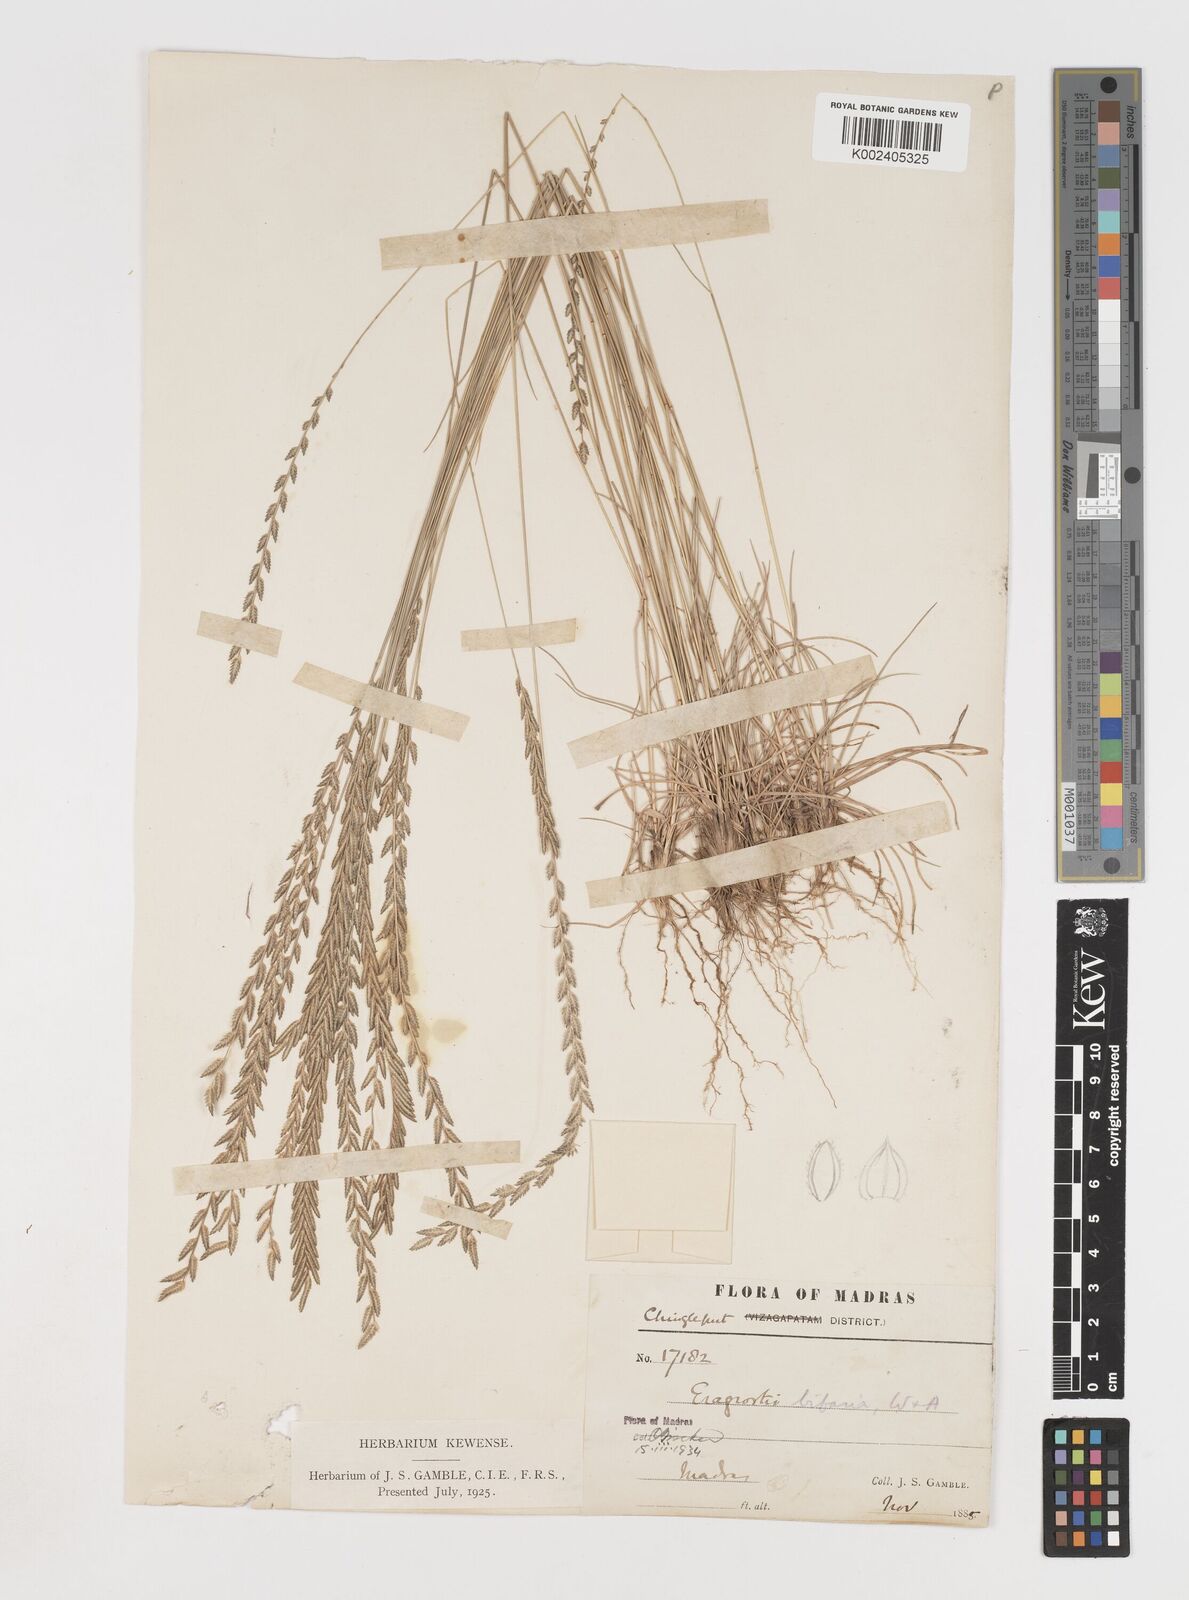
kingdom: Plantae
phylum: Tracheophyta
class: Liliopsida
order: Poales
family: Poaceae
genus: Eragrostiella
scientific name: Eragrostiella bifaria
